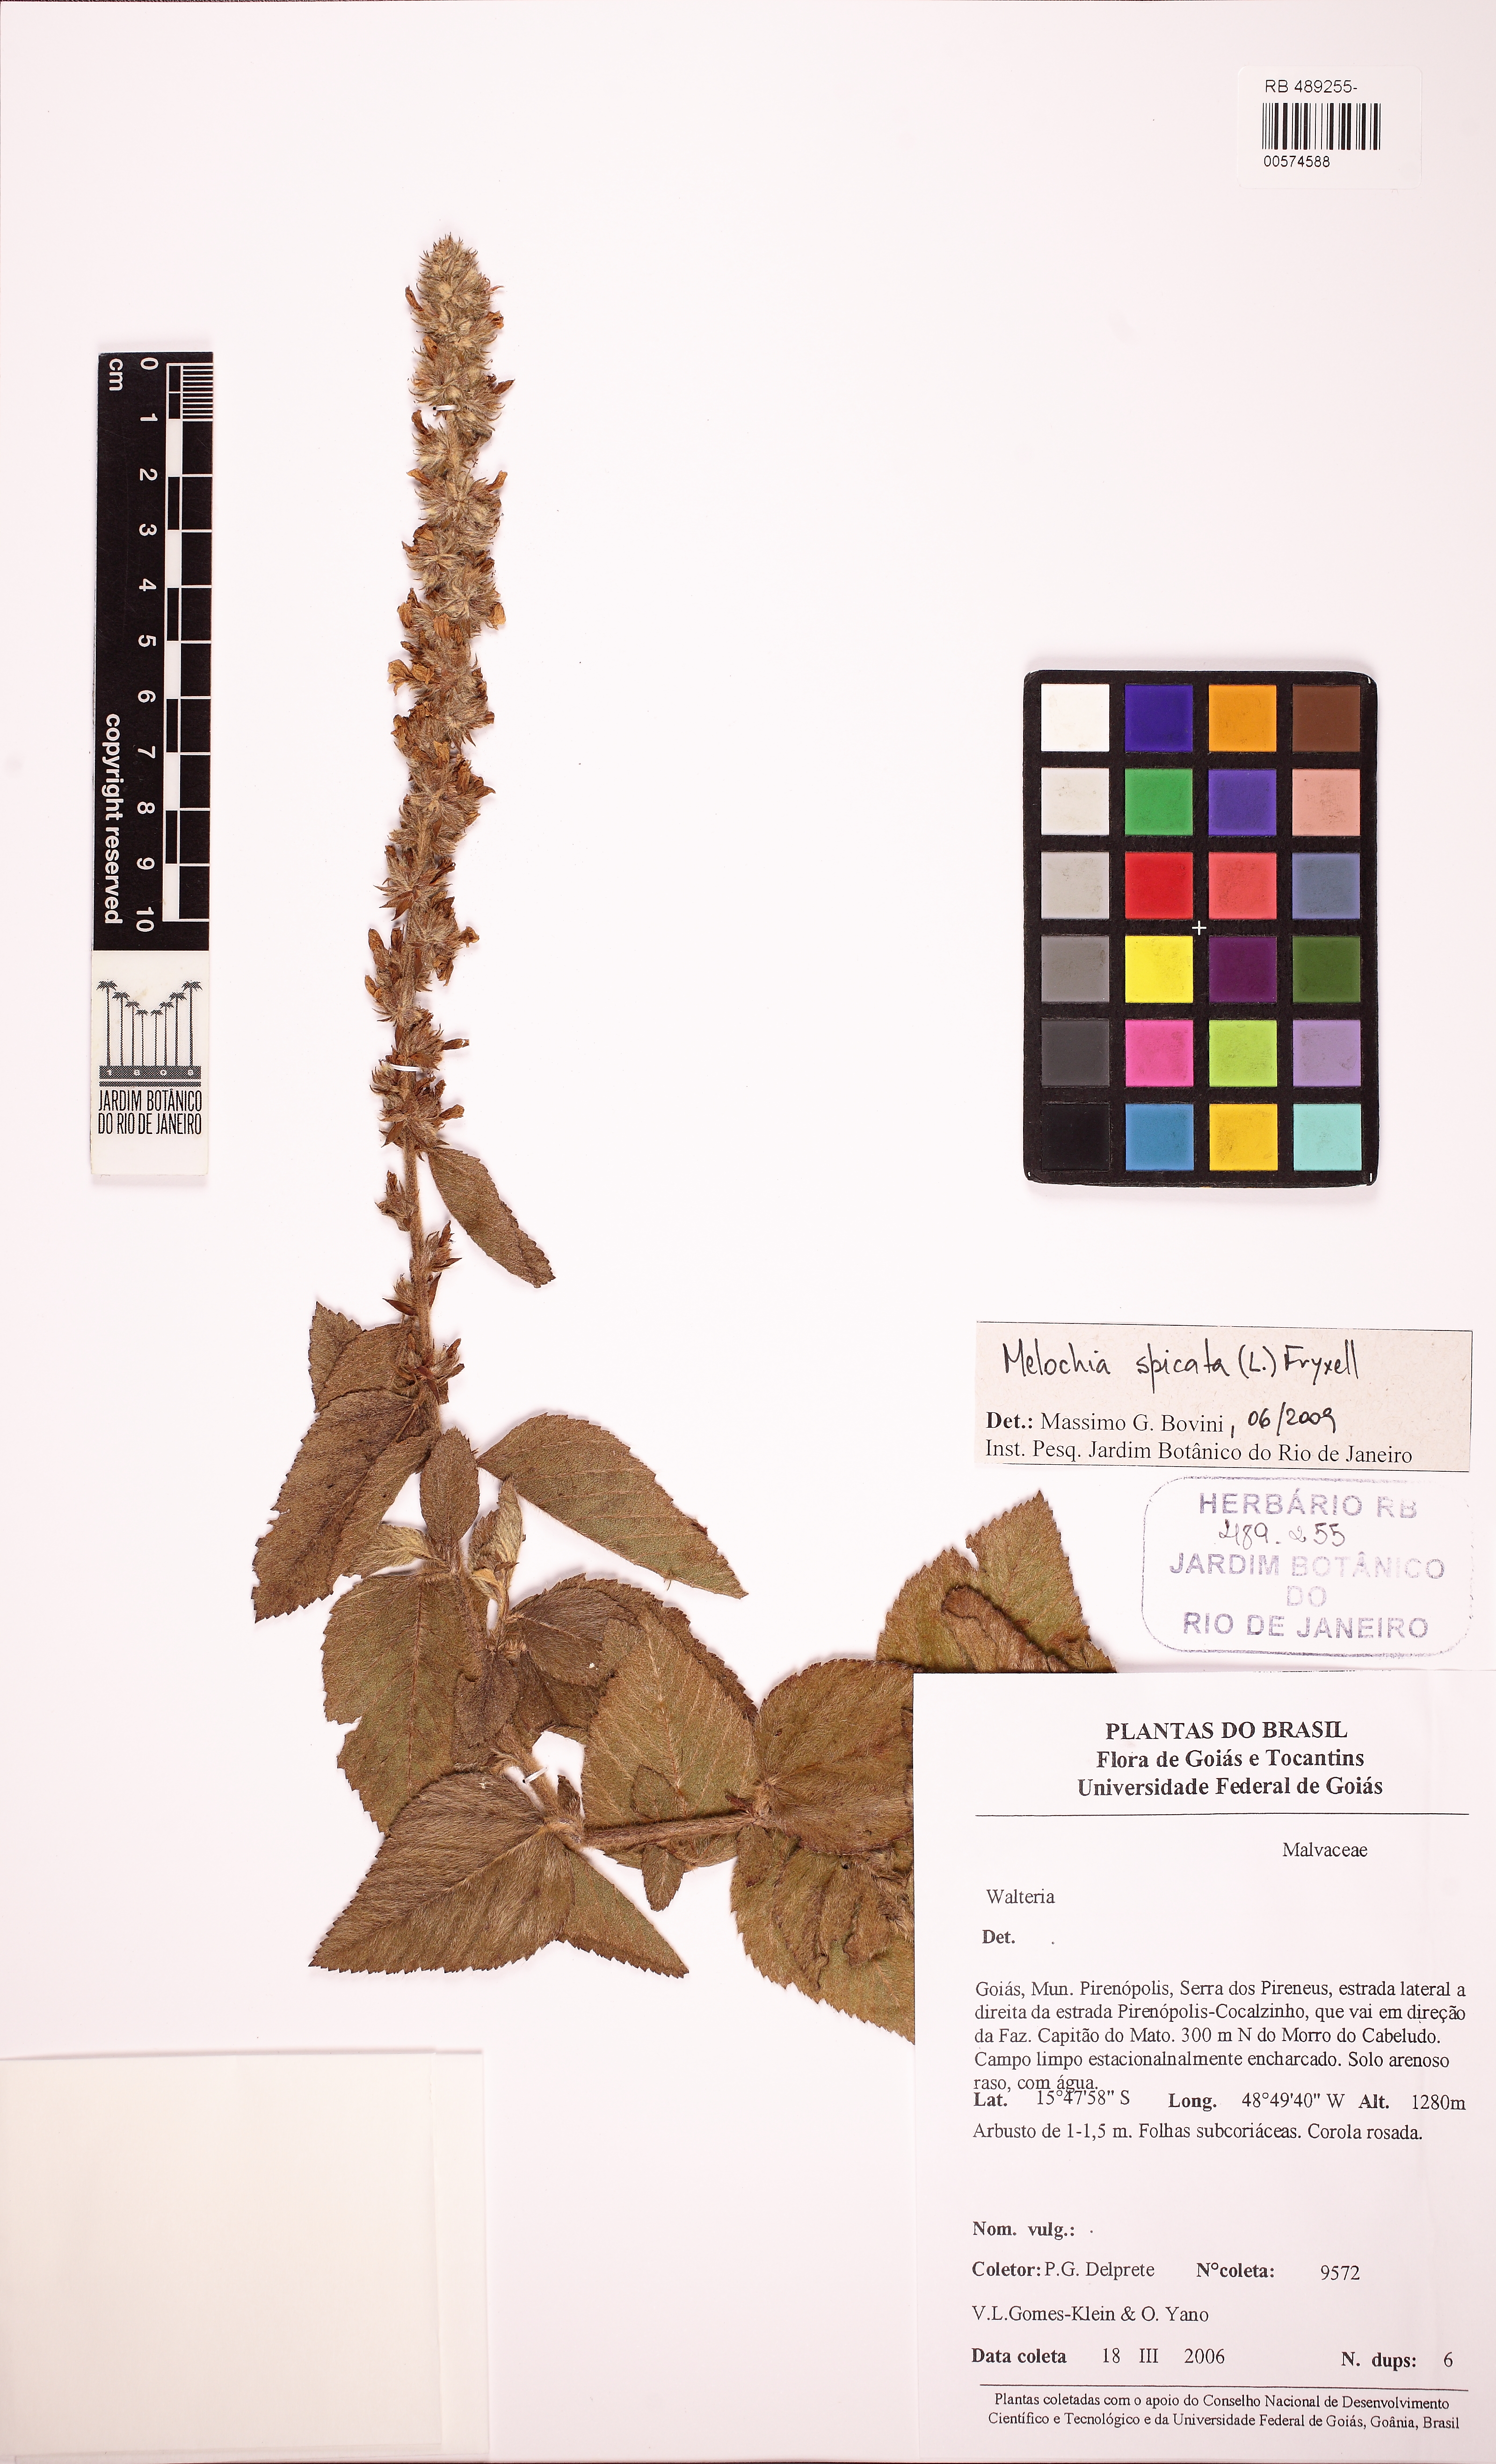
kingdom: Plantae
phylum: Tracheophyta
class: Magnoliopsida
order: Malvales
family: Malvaceae
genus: Melochia
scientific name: Melochia spicata
